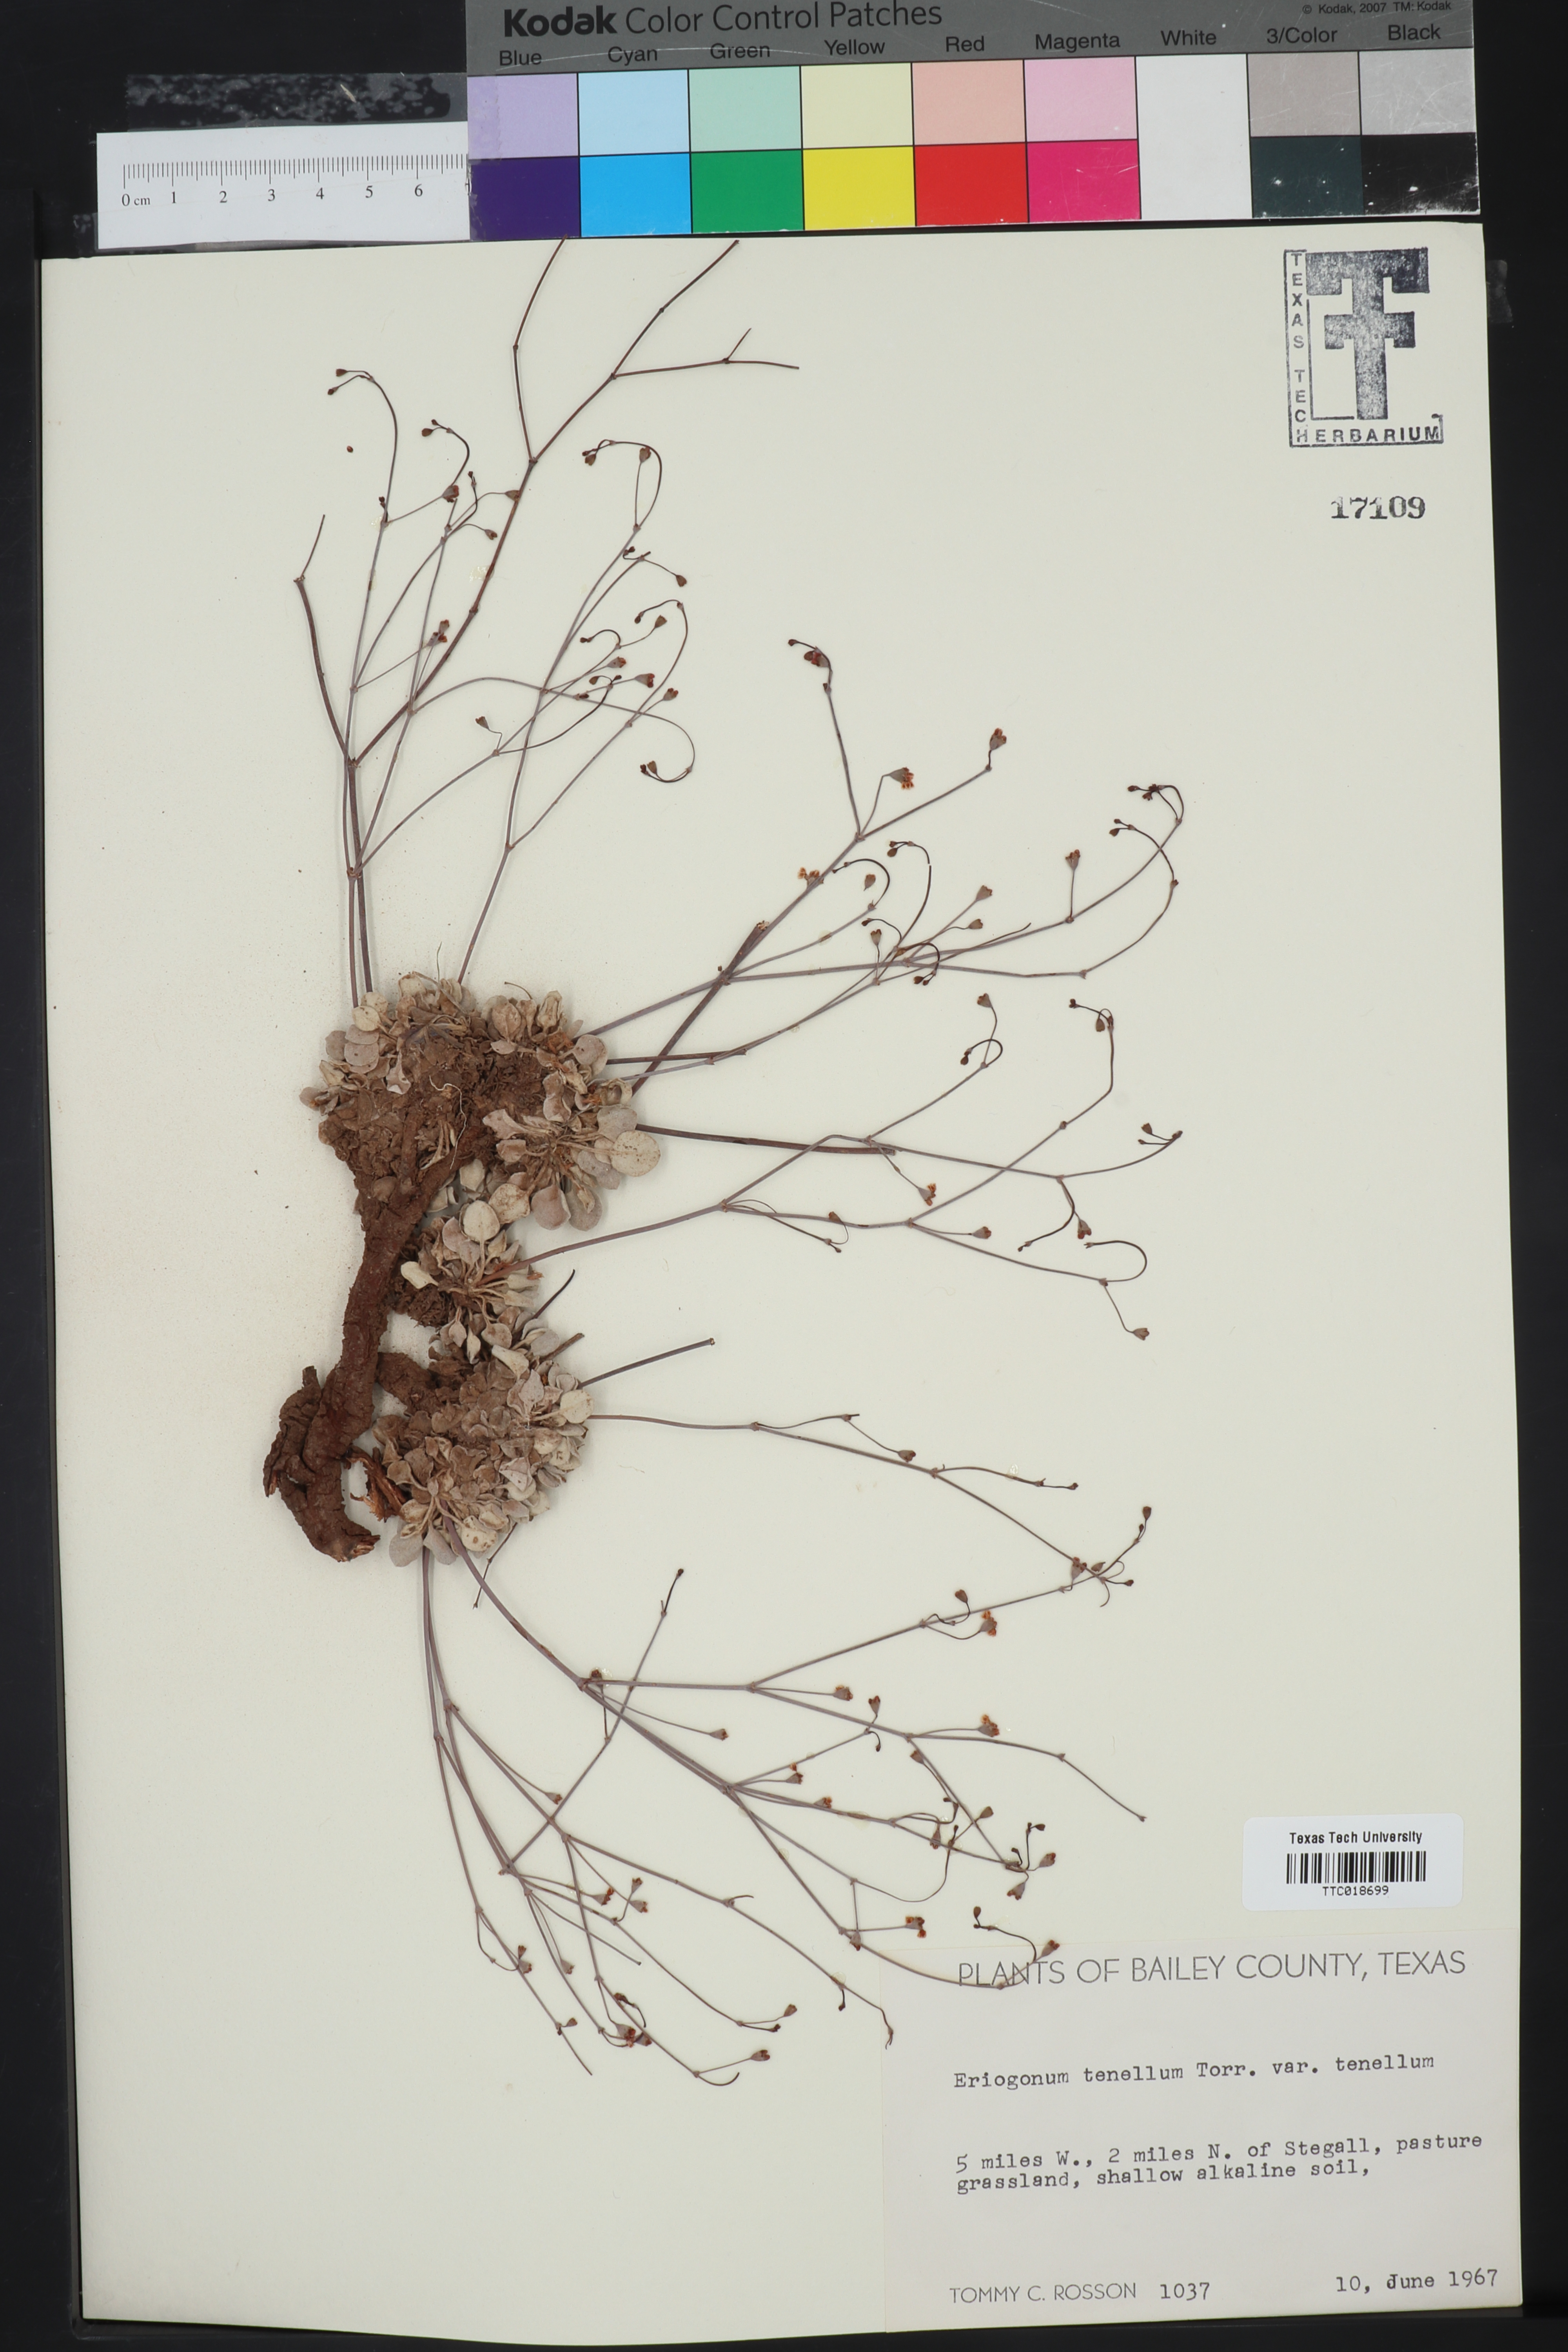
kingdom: Plantae
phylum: Tracheophyta
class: Magnoliopsida
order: Caryophyllales
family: Polygonaceae
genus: Eriogonum
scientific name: Eriogonum tenellum
